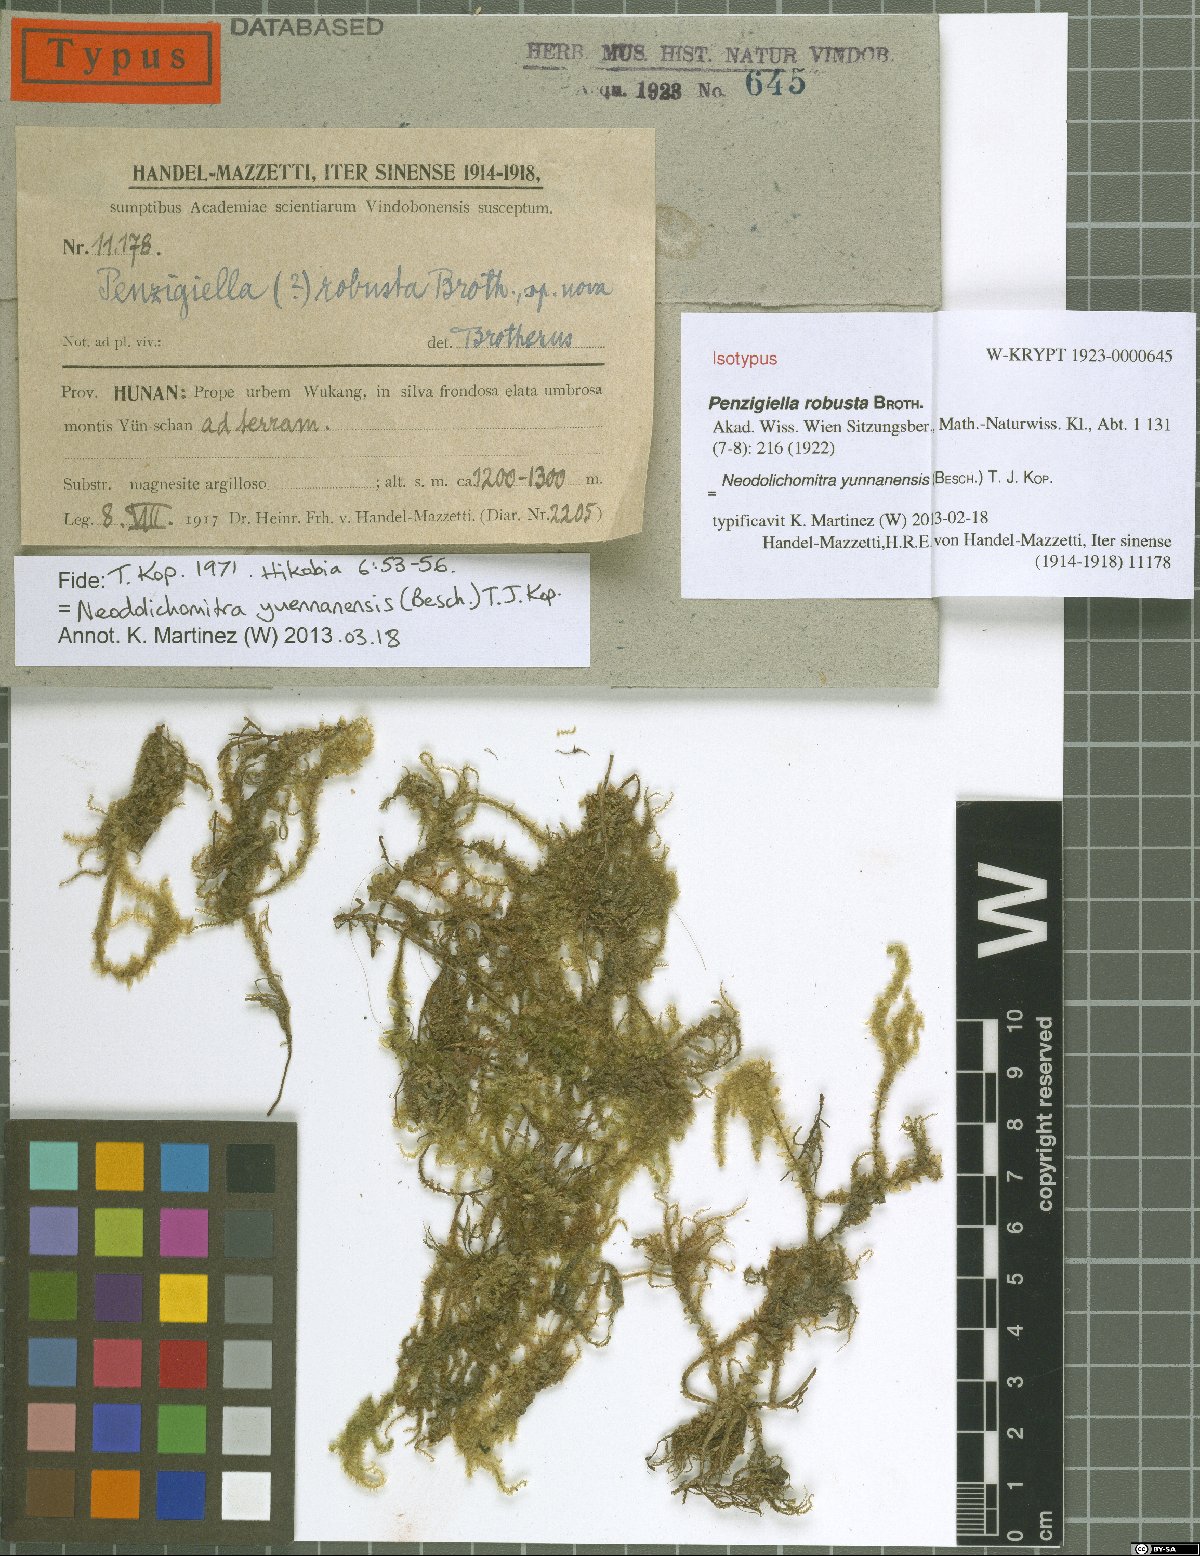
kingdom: Plantae
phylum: Bryophyta
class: Bryopsida
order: Hypnales
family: Hylocomiaceae
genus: Neodolichomitra
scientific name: Neodolichomitra yunnanensis
